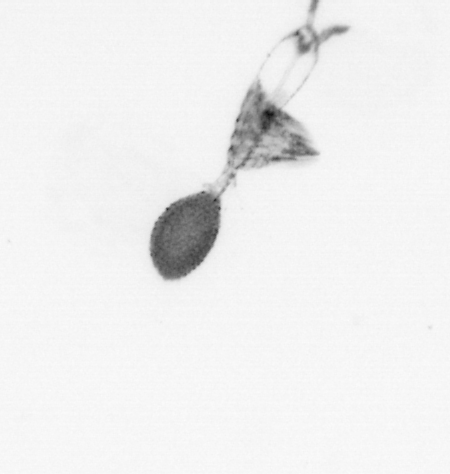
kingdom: Animalia
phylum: Arthropoda
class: Copepoda
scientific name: Copepoda
